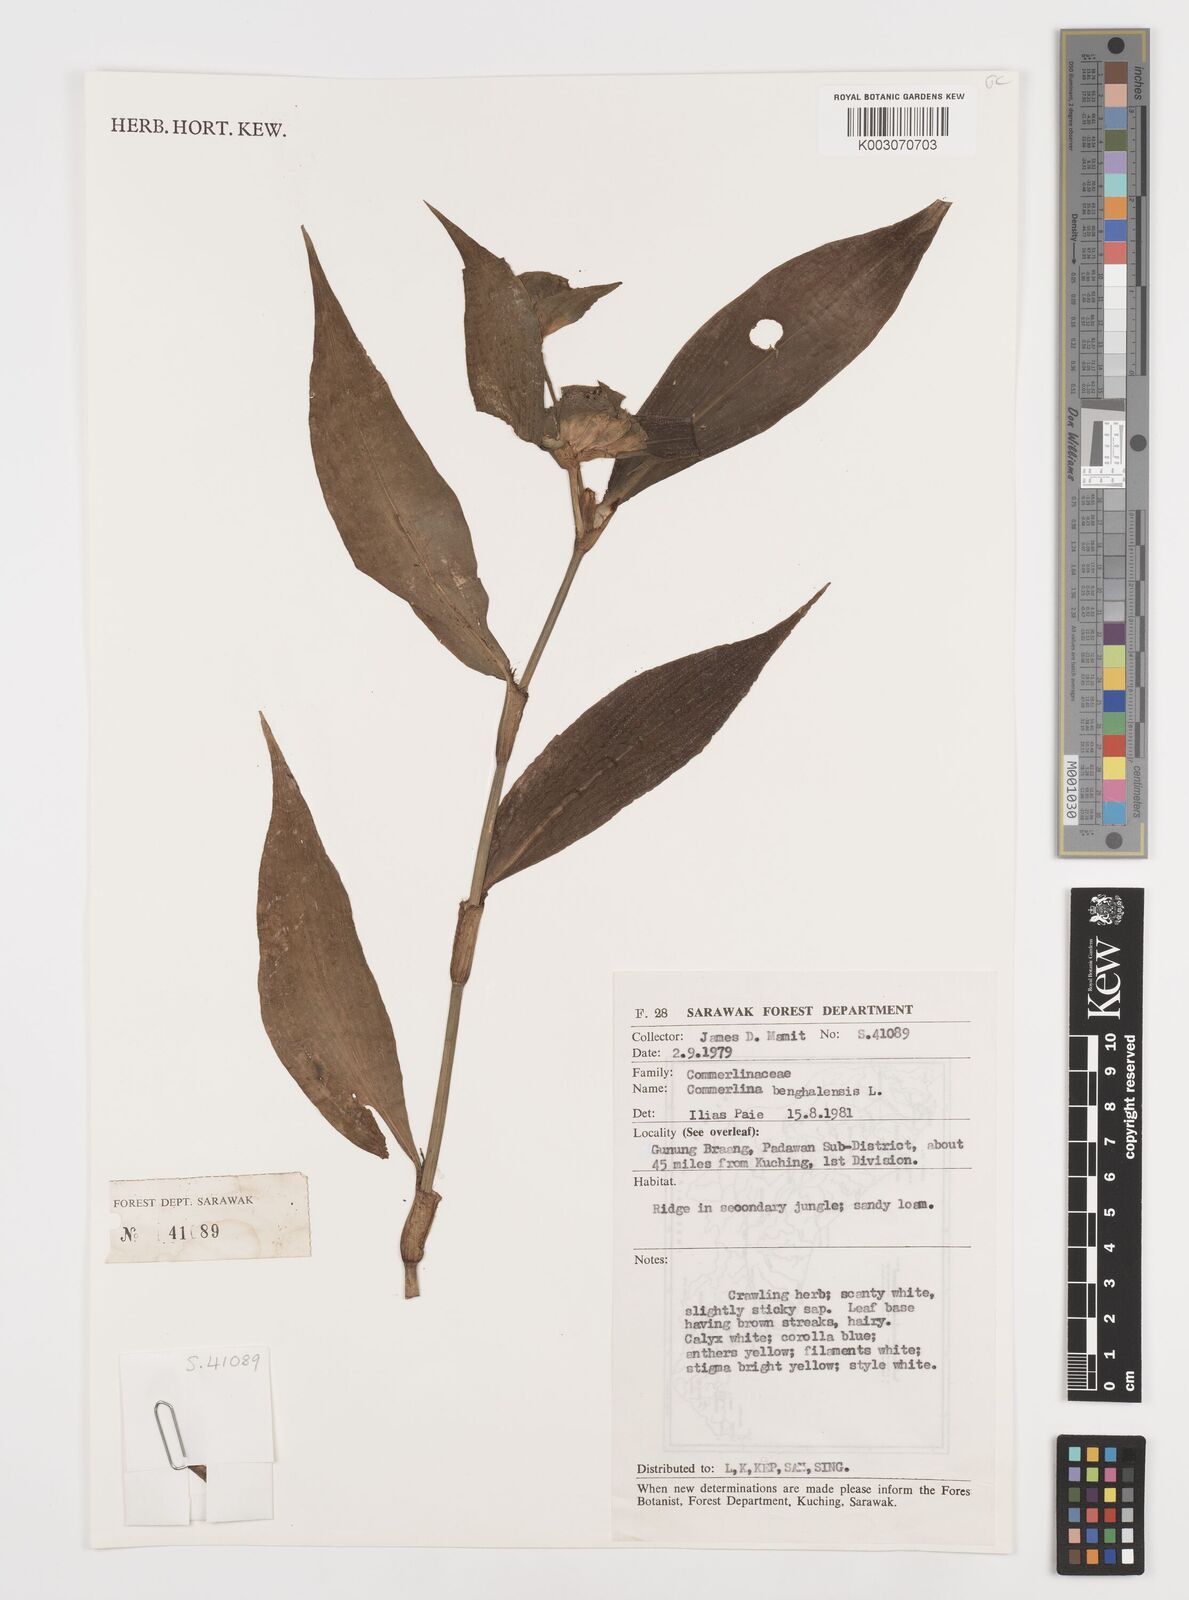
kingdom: Plantae
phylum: Tracheophyta
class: Liliopsida
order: Commelinales
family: Commelinaceae
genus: Commelina
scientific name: Commelina benghalensis
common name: Jio
